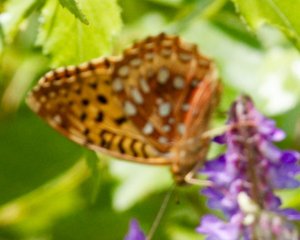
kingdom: Animalia
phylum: Arthropoda
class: Insecta
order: Lepidoptera
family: Nymphalidae
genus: Speyeria
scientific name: Speyeria cybele
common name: Great Spangled Fritillary
